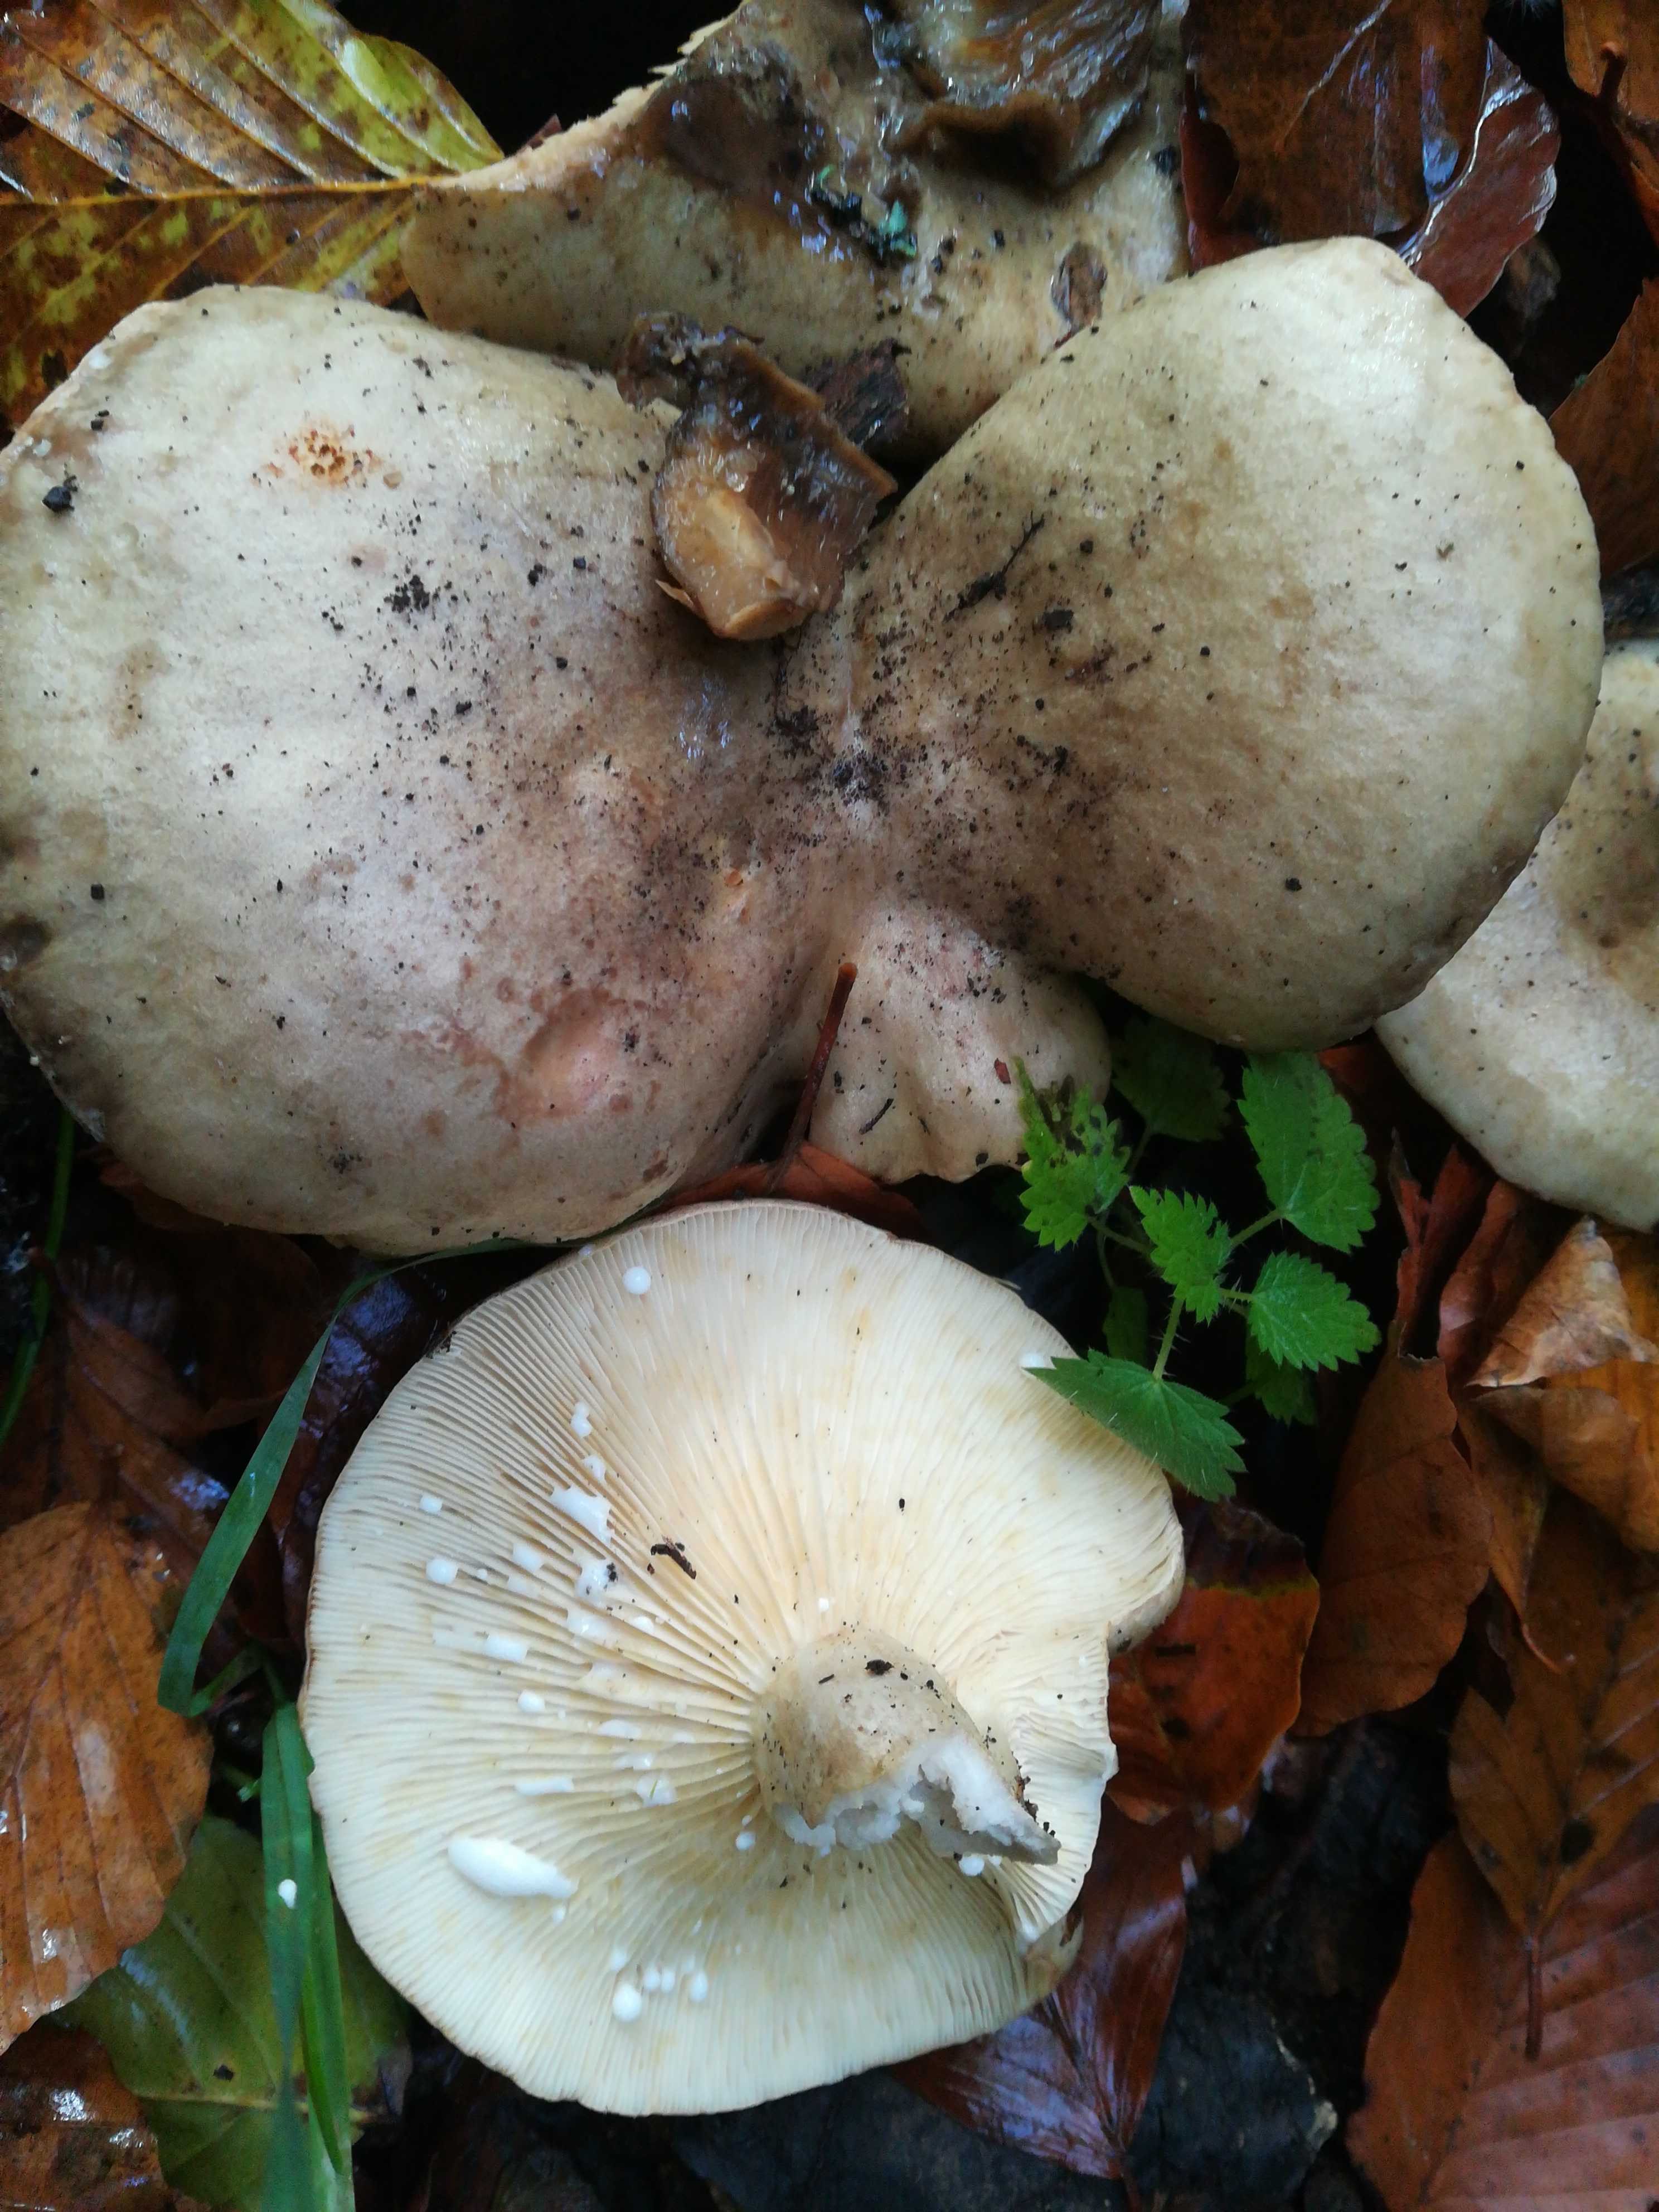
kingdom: Fungi
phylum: Basidiomycota
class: Agaricomycetes
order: Russulales
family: Russulaceae
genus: Lactarius
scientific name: Lactarius blennius
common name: dråbeplettet mælkehat
